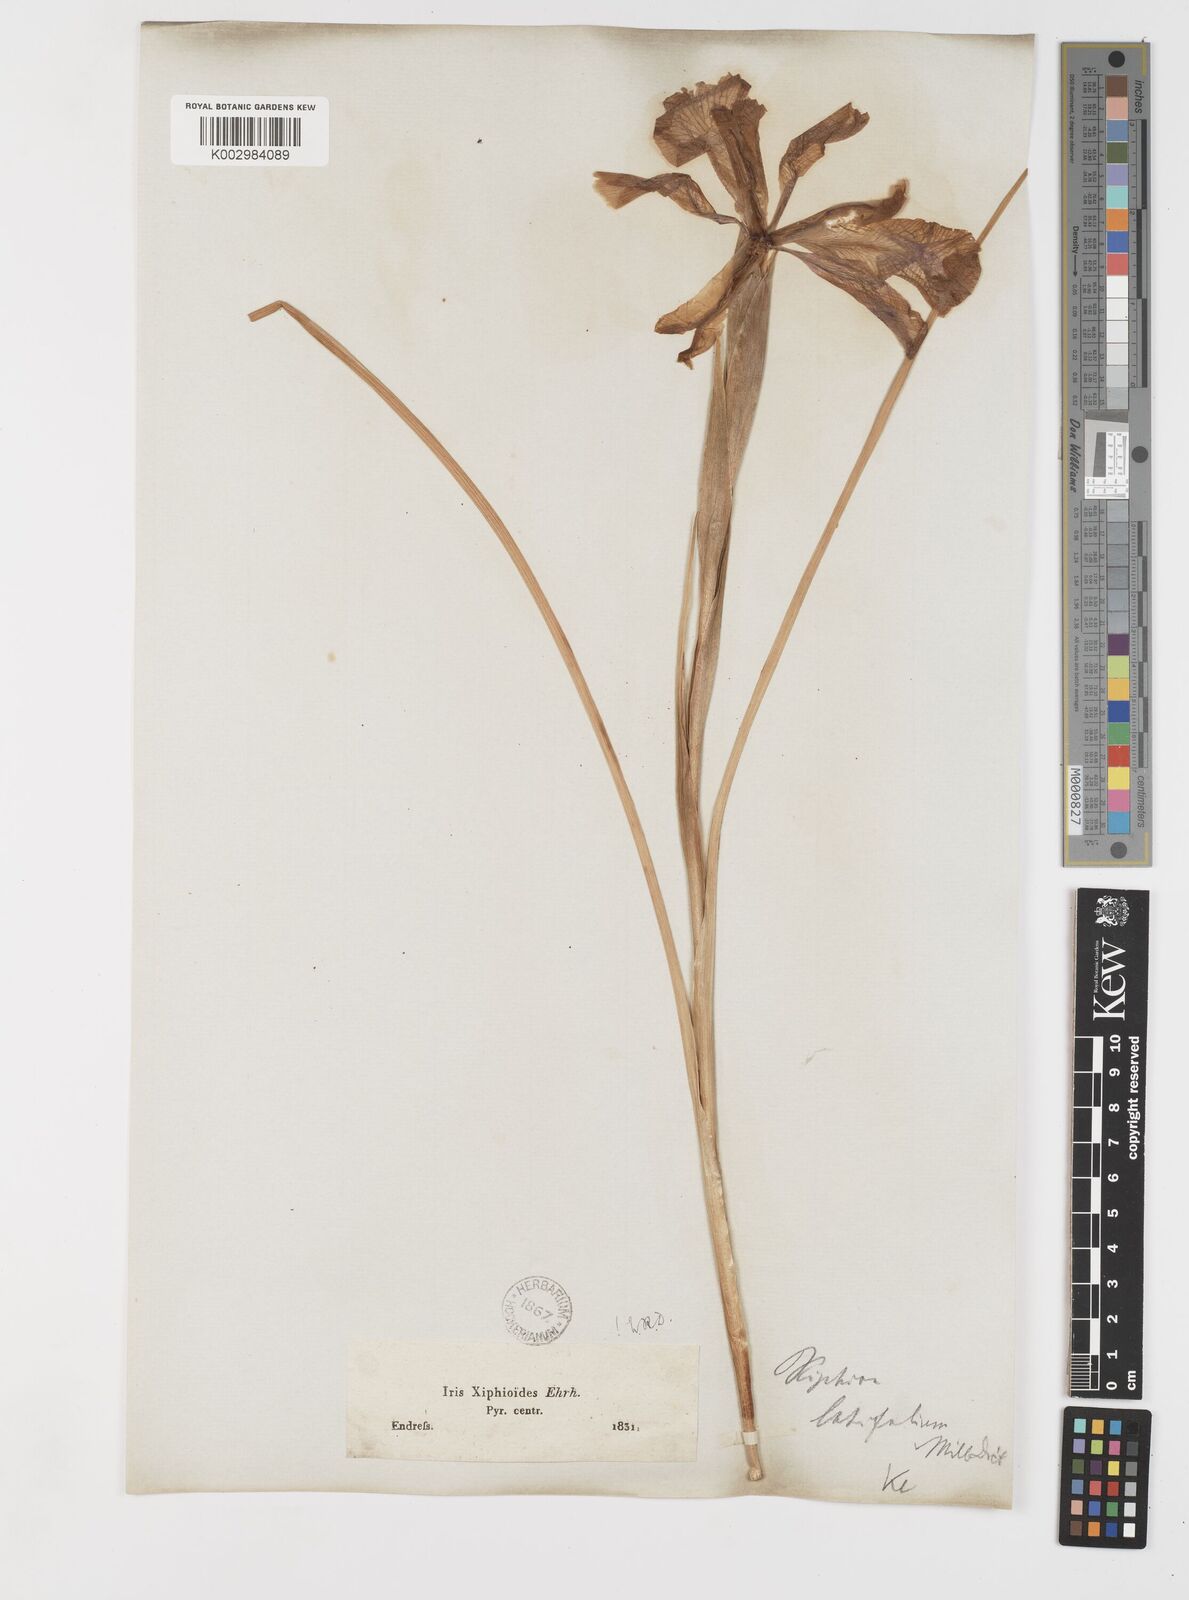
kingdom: Plantae
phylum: Tracheophyta
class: Liliopsida
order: Asparagales
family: Iridaceae
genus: Iris
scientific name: Iris jacquinii
